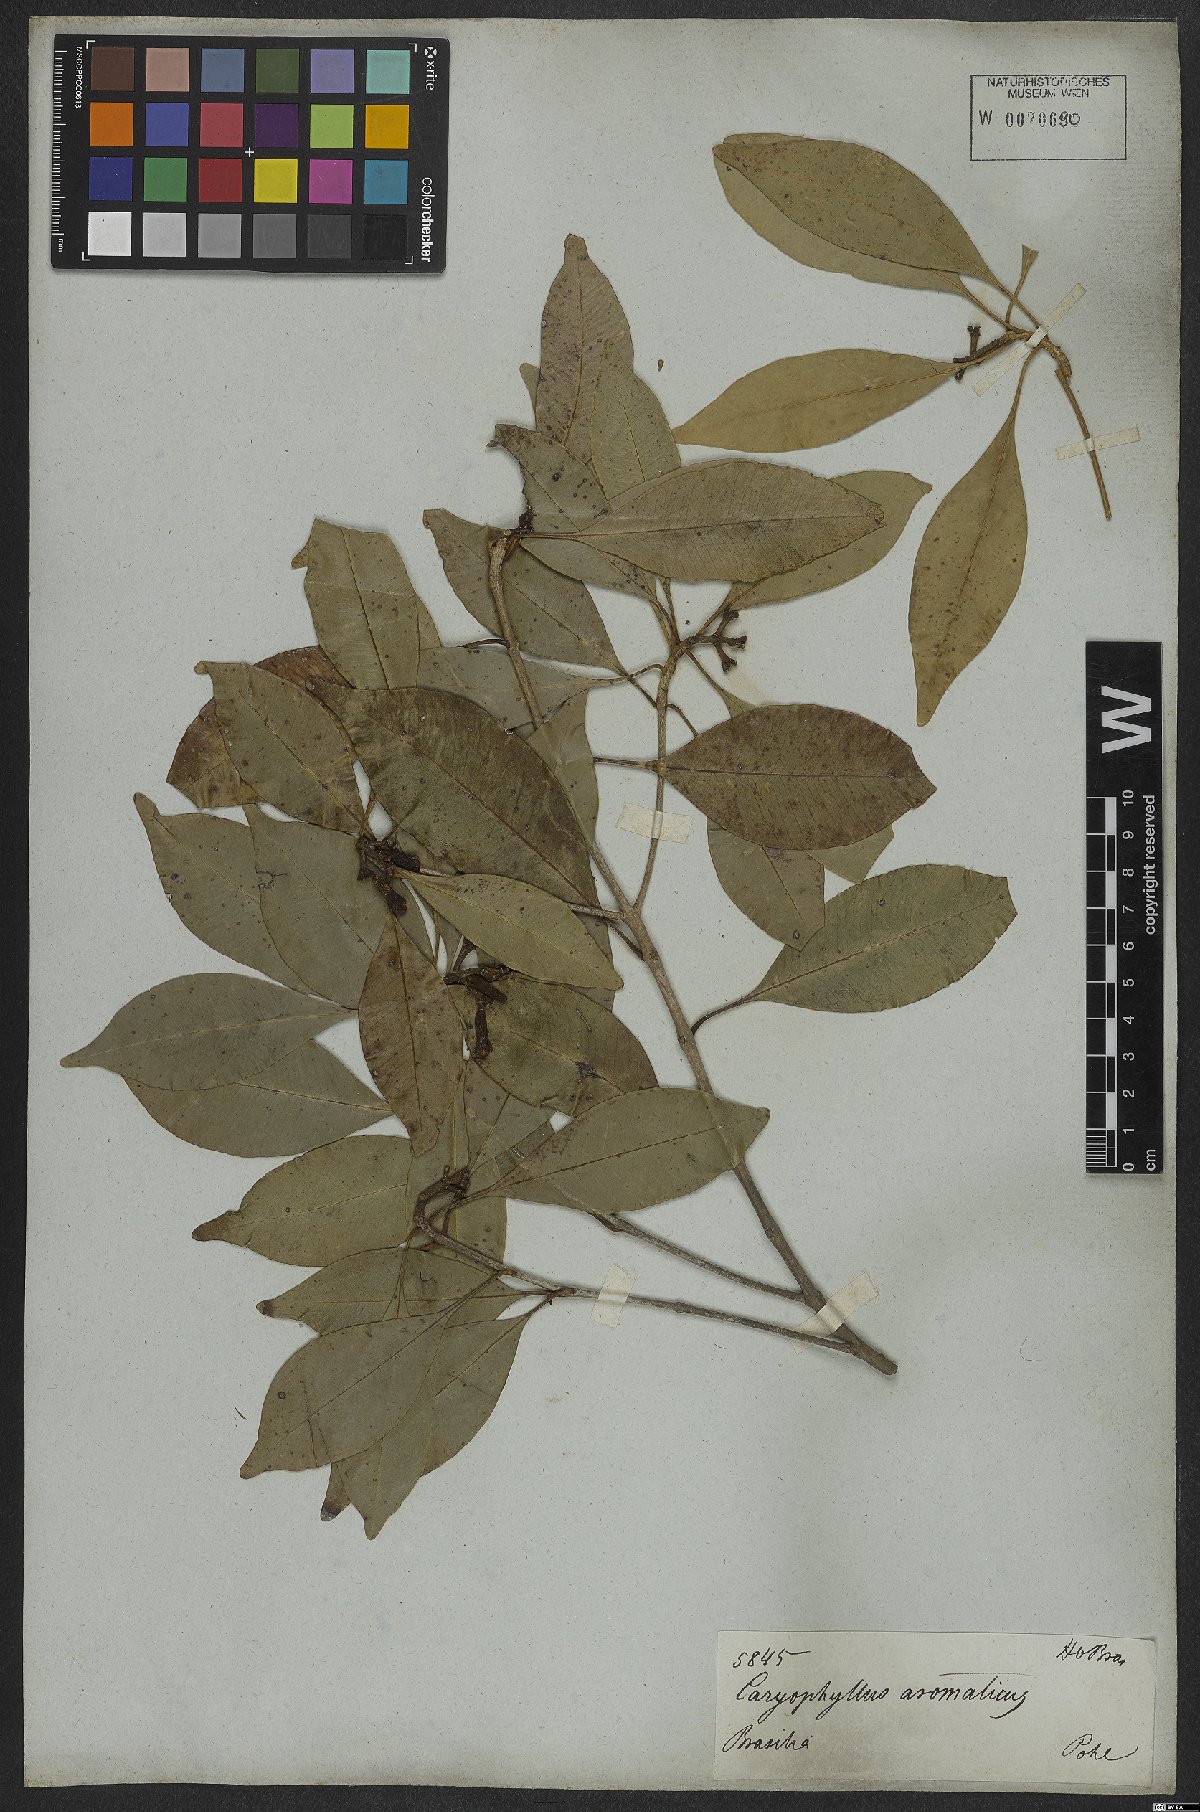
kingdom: Plantae
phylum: Tracheophyta
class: Magnoliopsida
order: Myrtales
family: Myrtaceae
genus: Syzygium
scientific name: Syzygium aromaticum
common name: Clove
